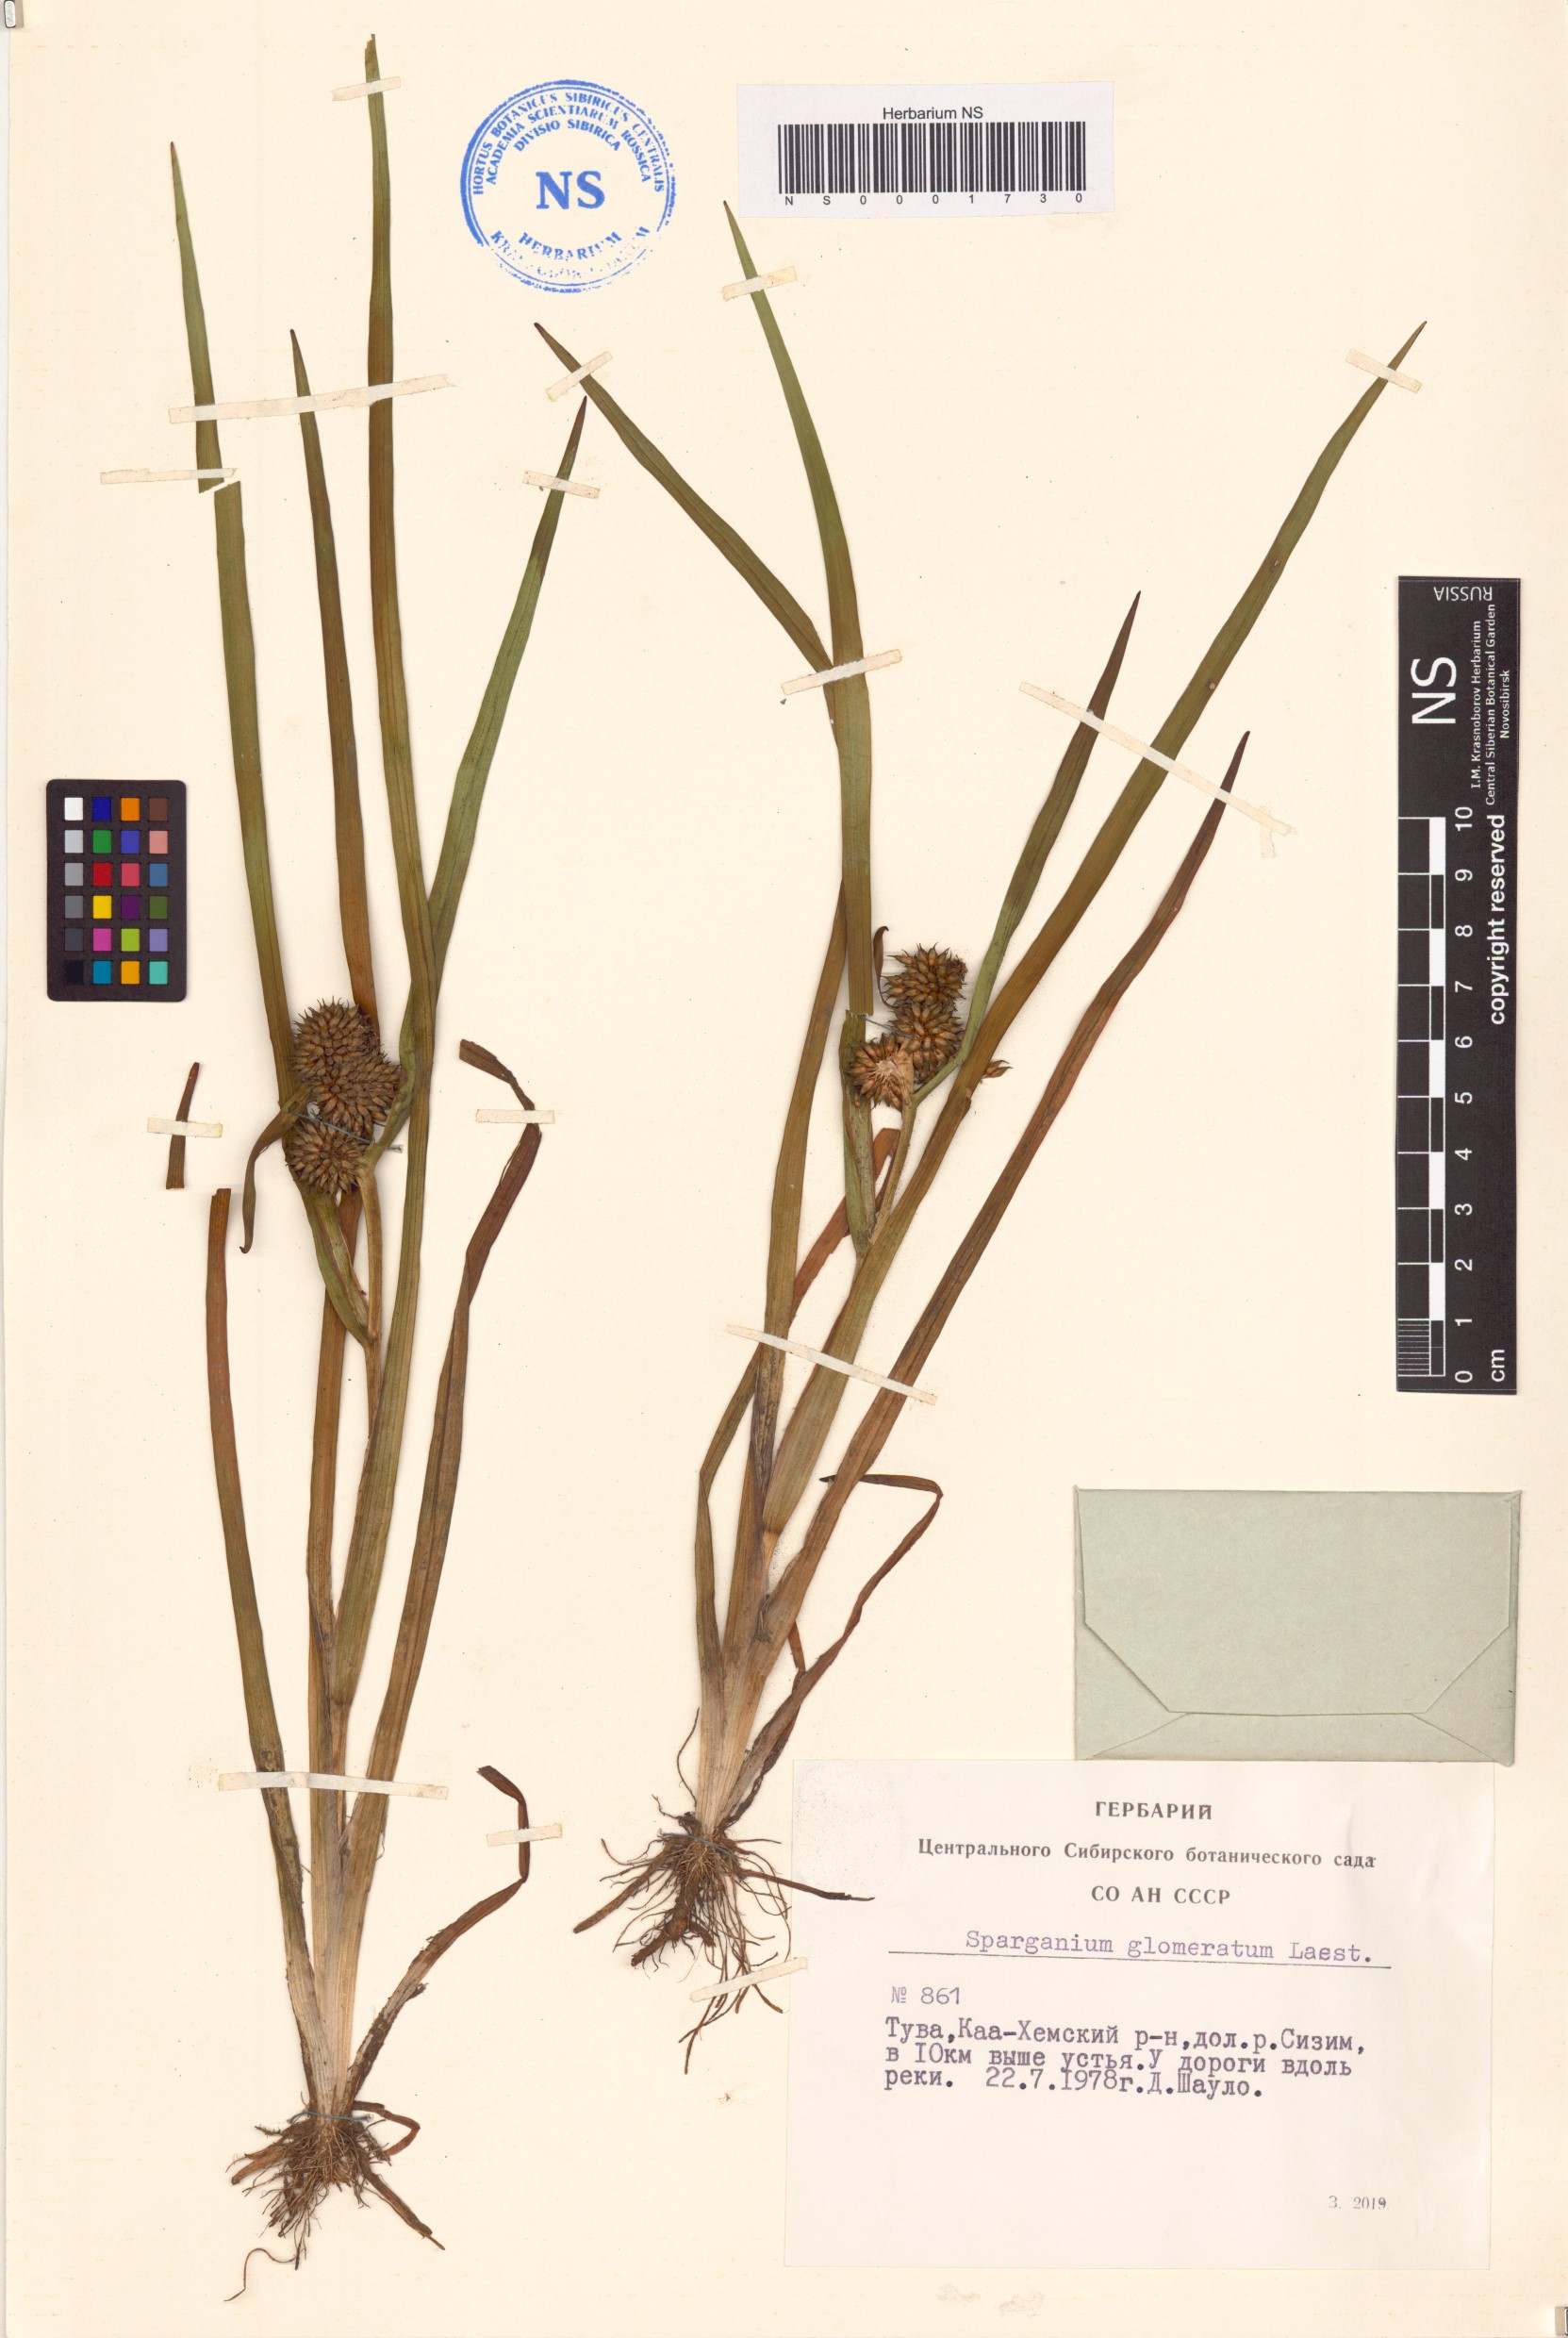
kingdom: Plantae
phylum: Tracheophyta
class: Liliopsida
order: Poales
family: Typhaceae
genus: Sparganium
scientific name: Sparganium glomeratum
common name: Clustered burreed
